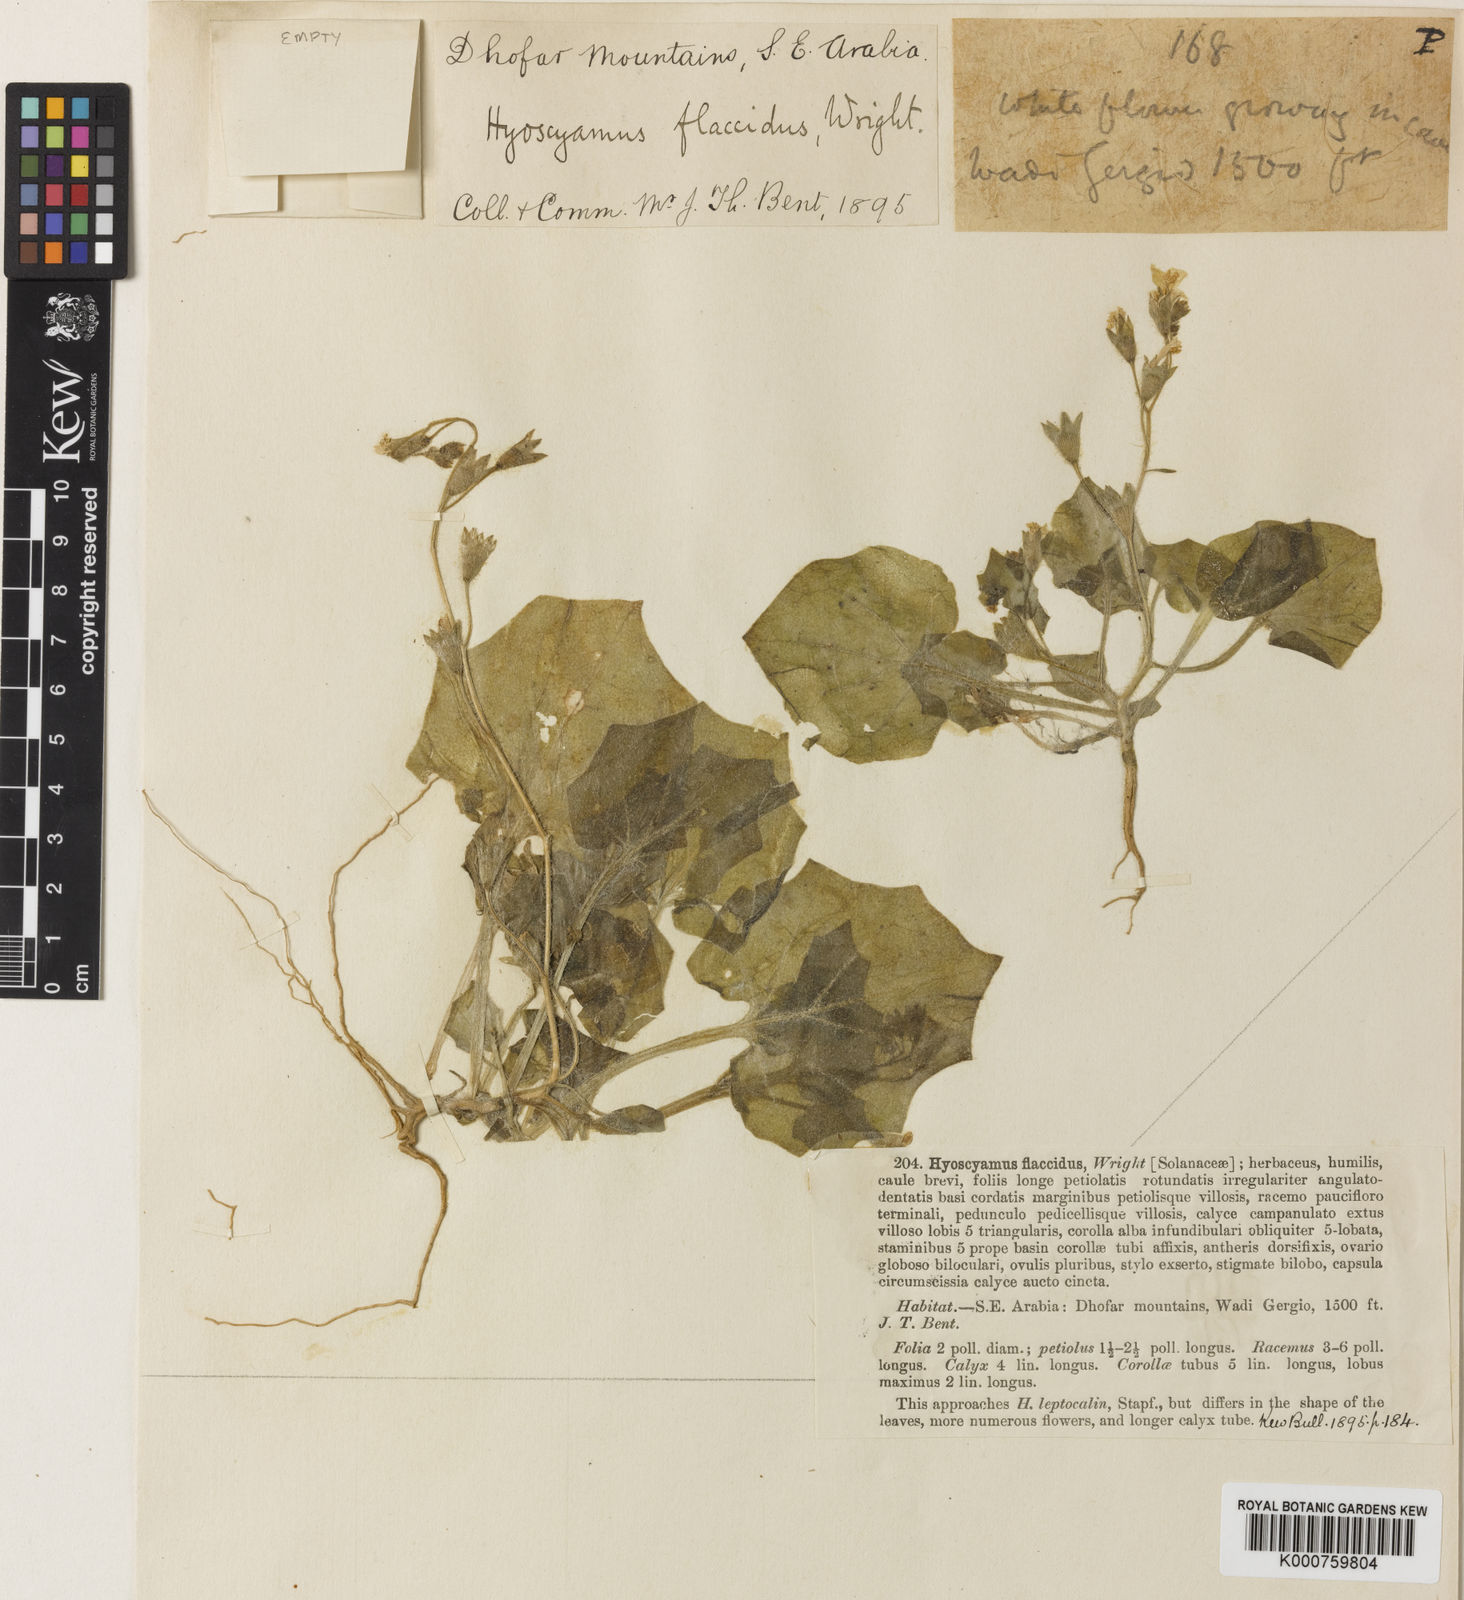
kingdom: Plantae
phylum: Tracheophyta
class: Magnoliopsida
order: Solanales
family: Solanaceae
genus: Hyoscyamus
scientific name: Hyoscyamus flaccidus
